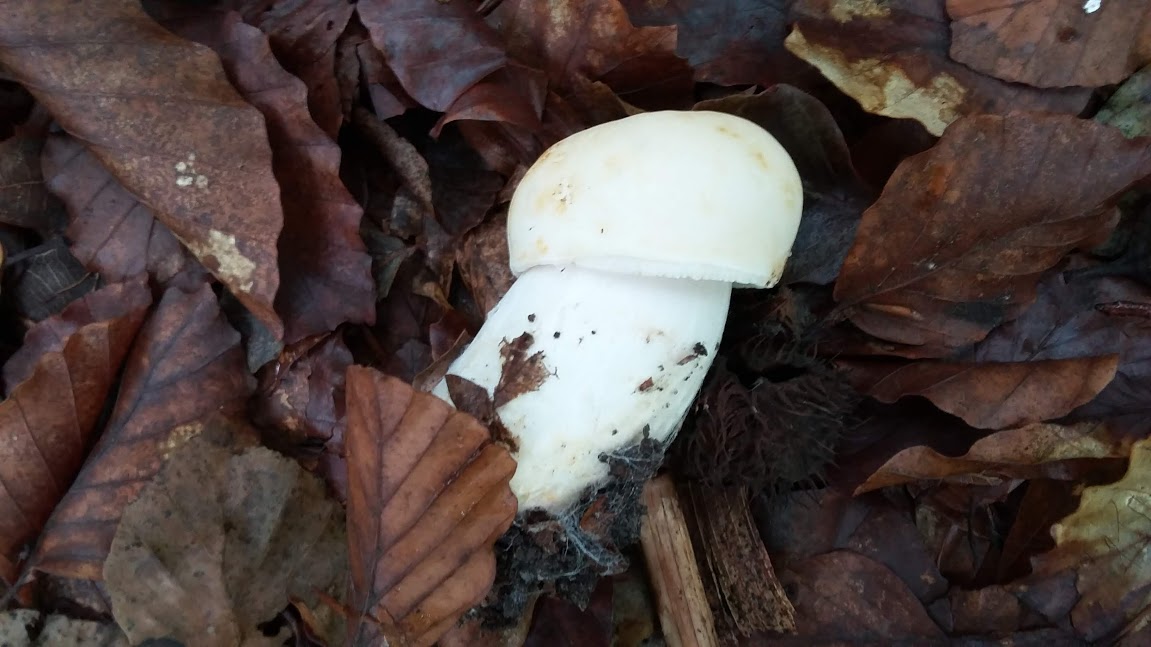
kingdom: Fungi
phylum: Basidiomycota
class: Agaricomycetes
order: Russulales
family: Russulaceae
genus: Russula
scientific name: Russula virescens
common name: spanskgrøn skørhat
